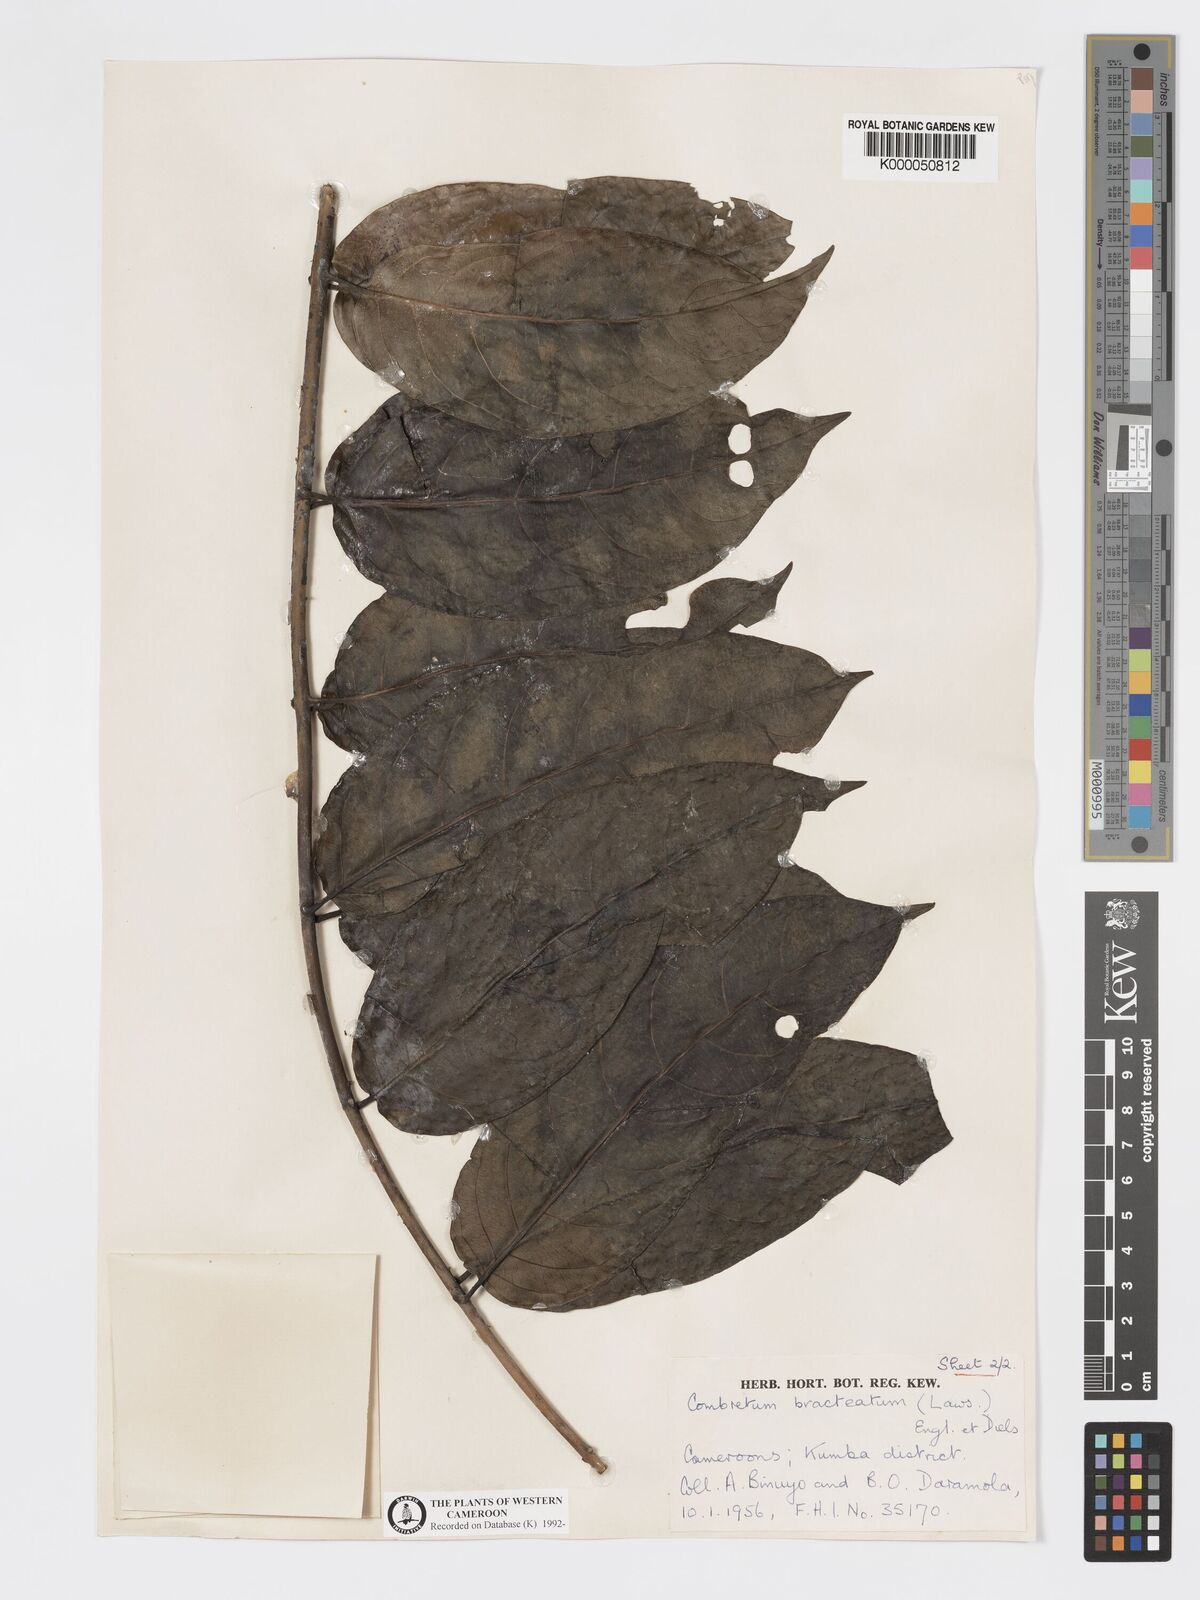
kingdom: Plantae
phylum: Tracheophyta
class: Magnoliopsida
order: Myrtales
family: Combretaceae
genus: Combretum
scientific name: Combretum bracteatum
